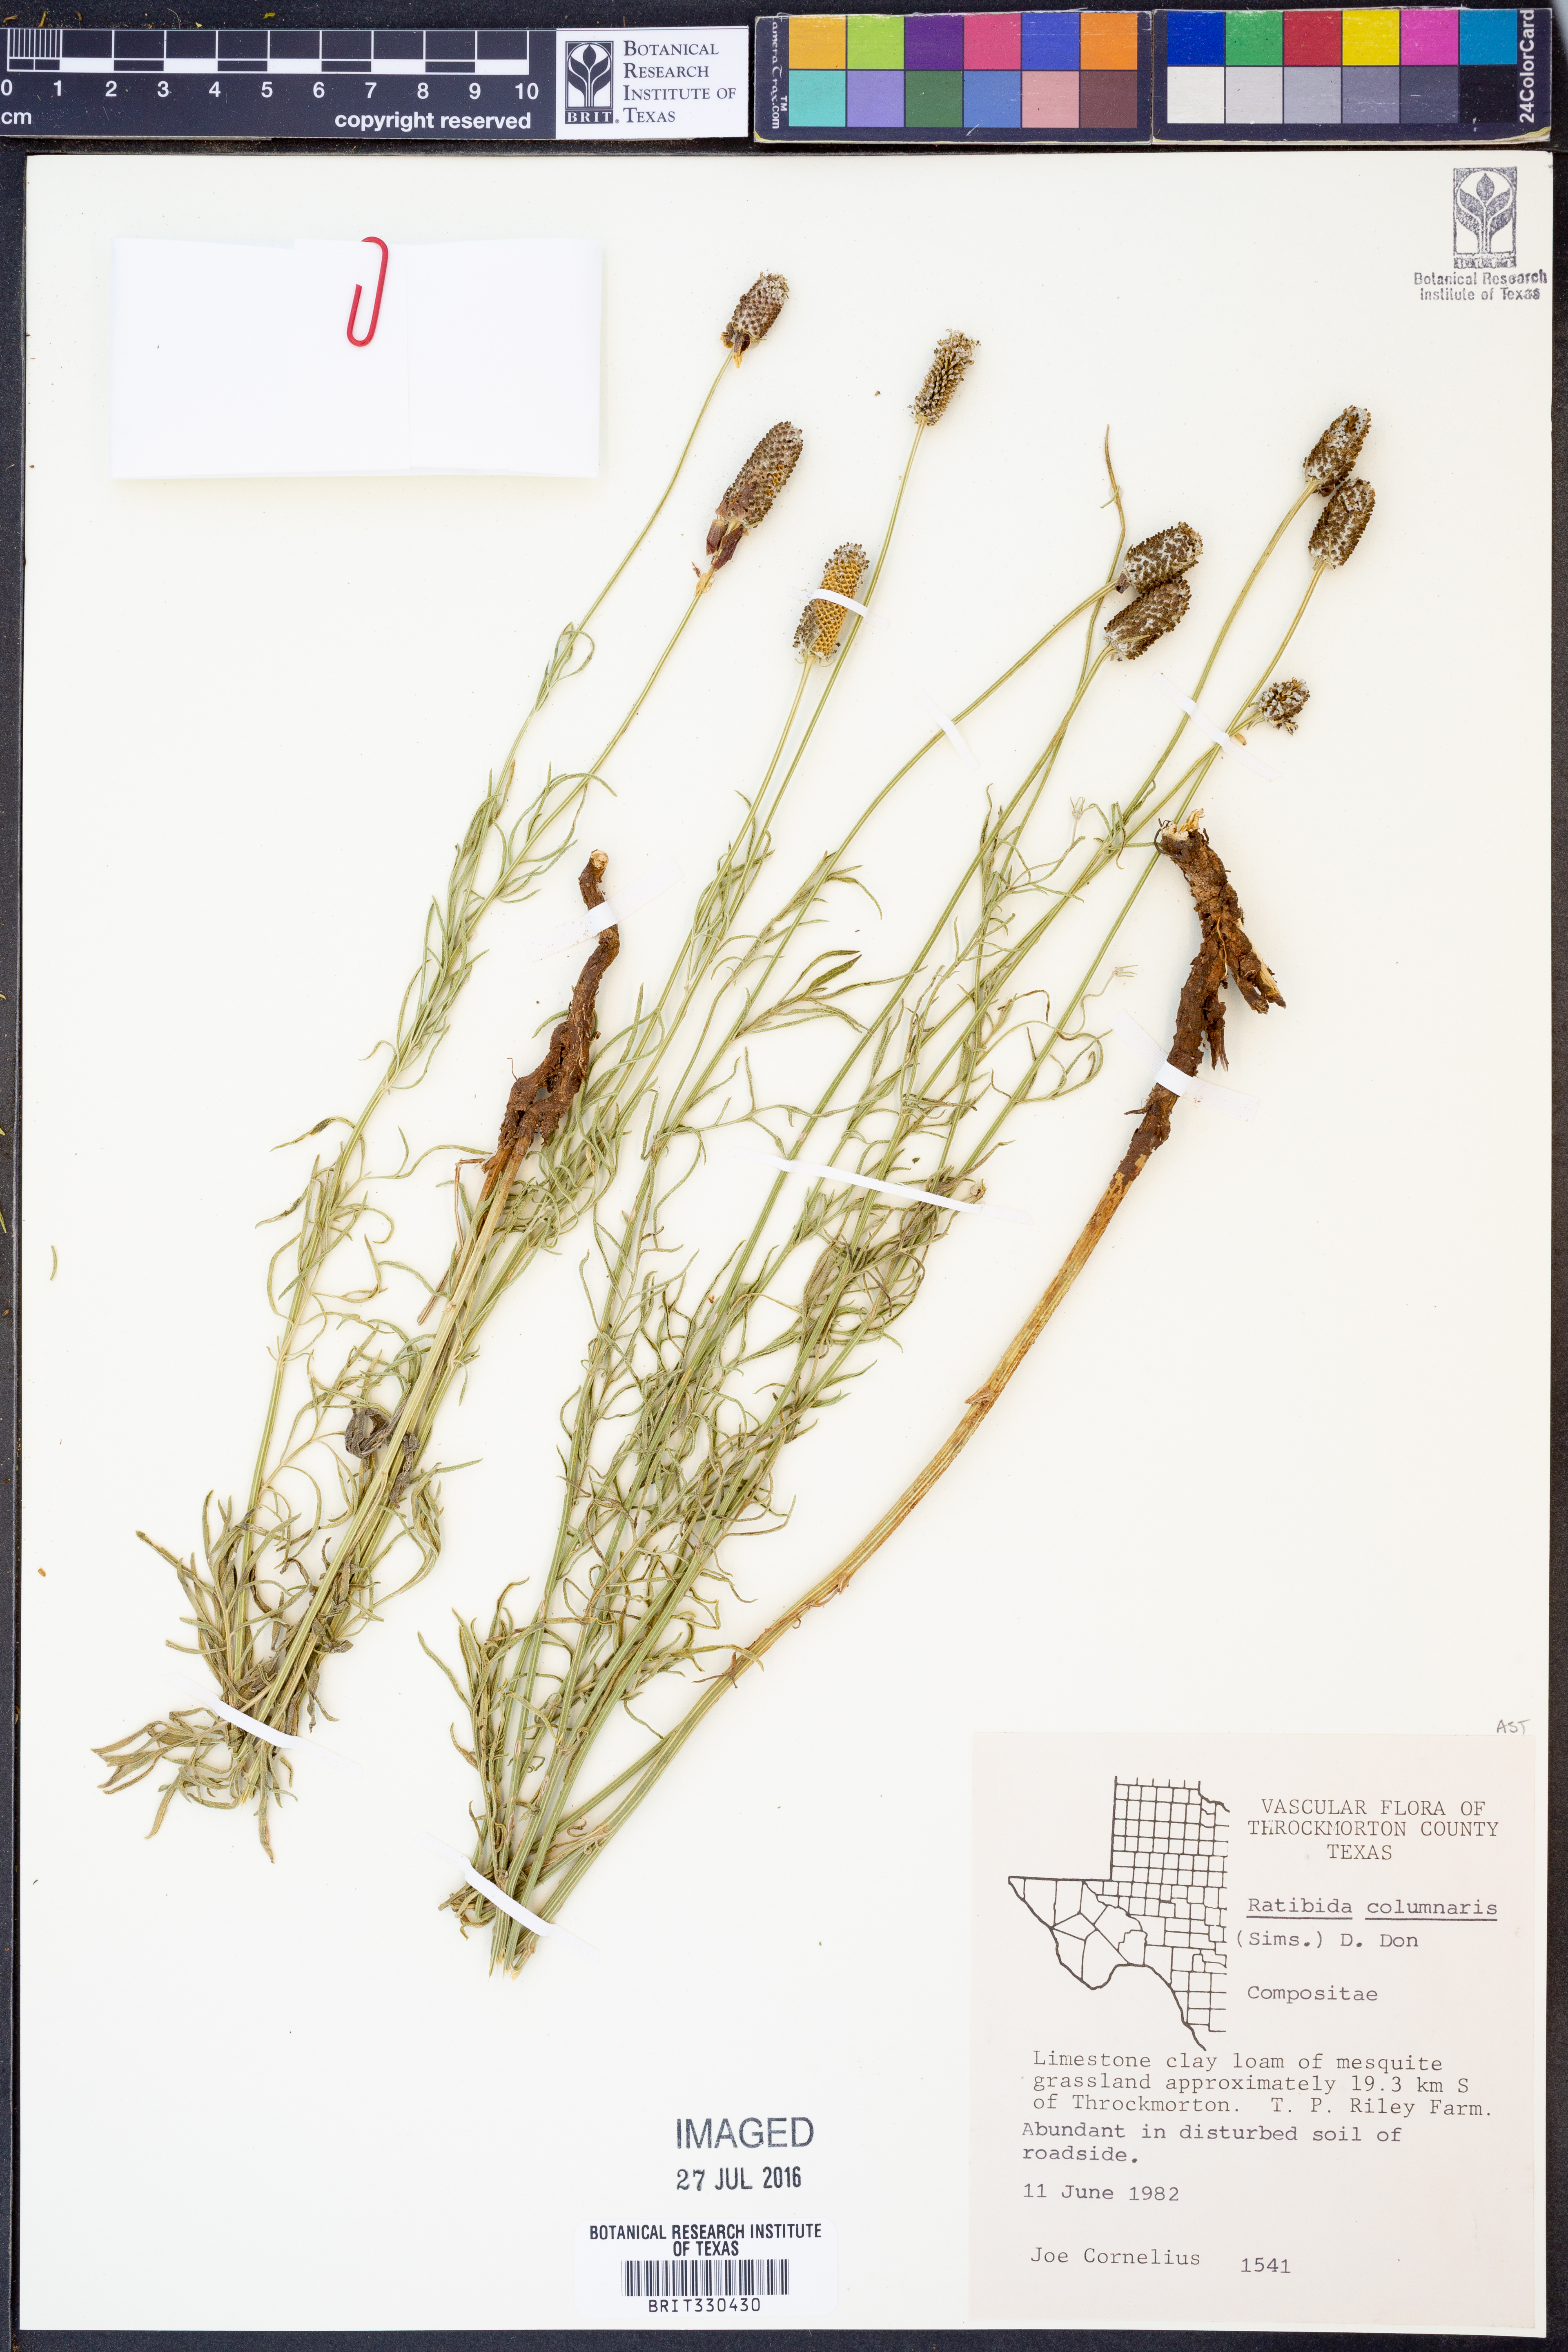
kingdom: Plantae
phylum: Tracheophyta
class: Magnoliopsida
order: Asterales
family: Asteraceae
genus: Ratibida
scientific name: Ratibida columnifera
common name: Prairie coneflower
